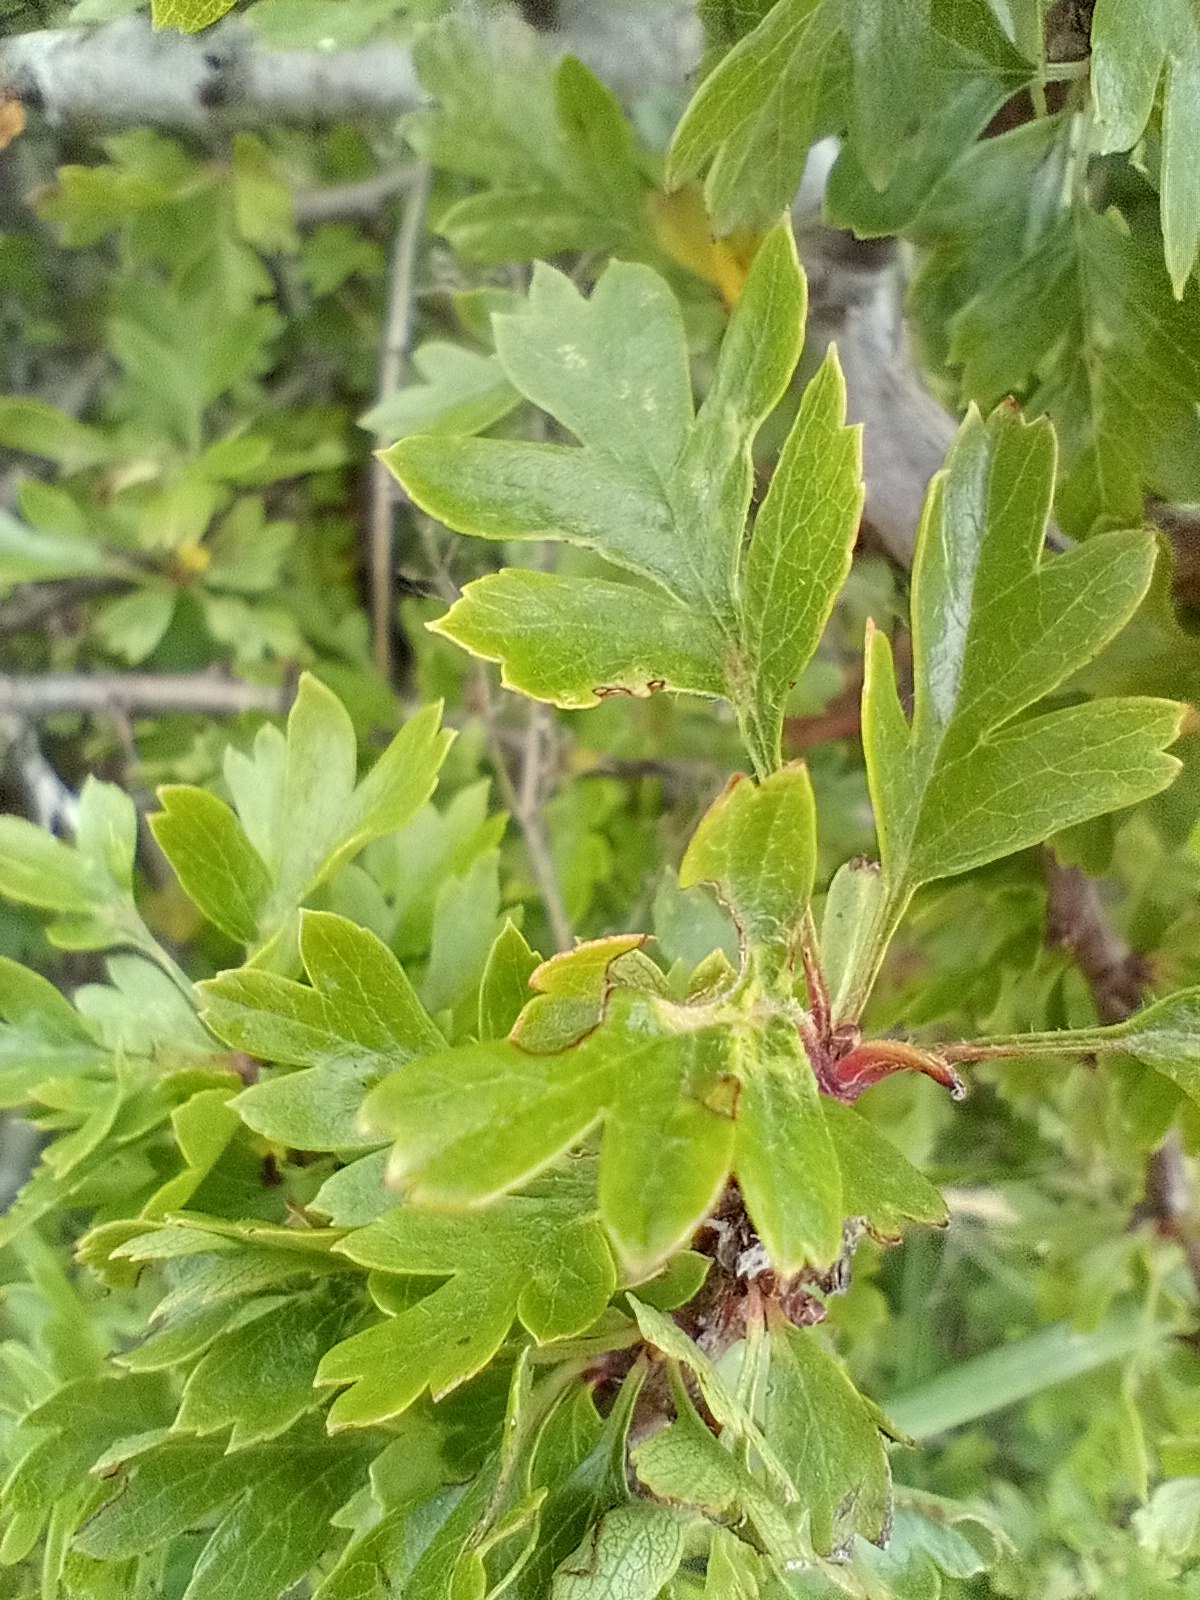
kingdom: Plantae
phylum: Tracheophyta
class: Magnoliopsida
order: Rosales
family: Rosaceae
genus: Crataegus
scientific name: Crataegus monogyna
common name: Engriflet hvidtjørn
